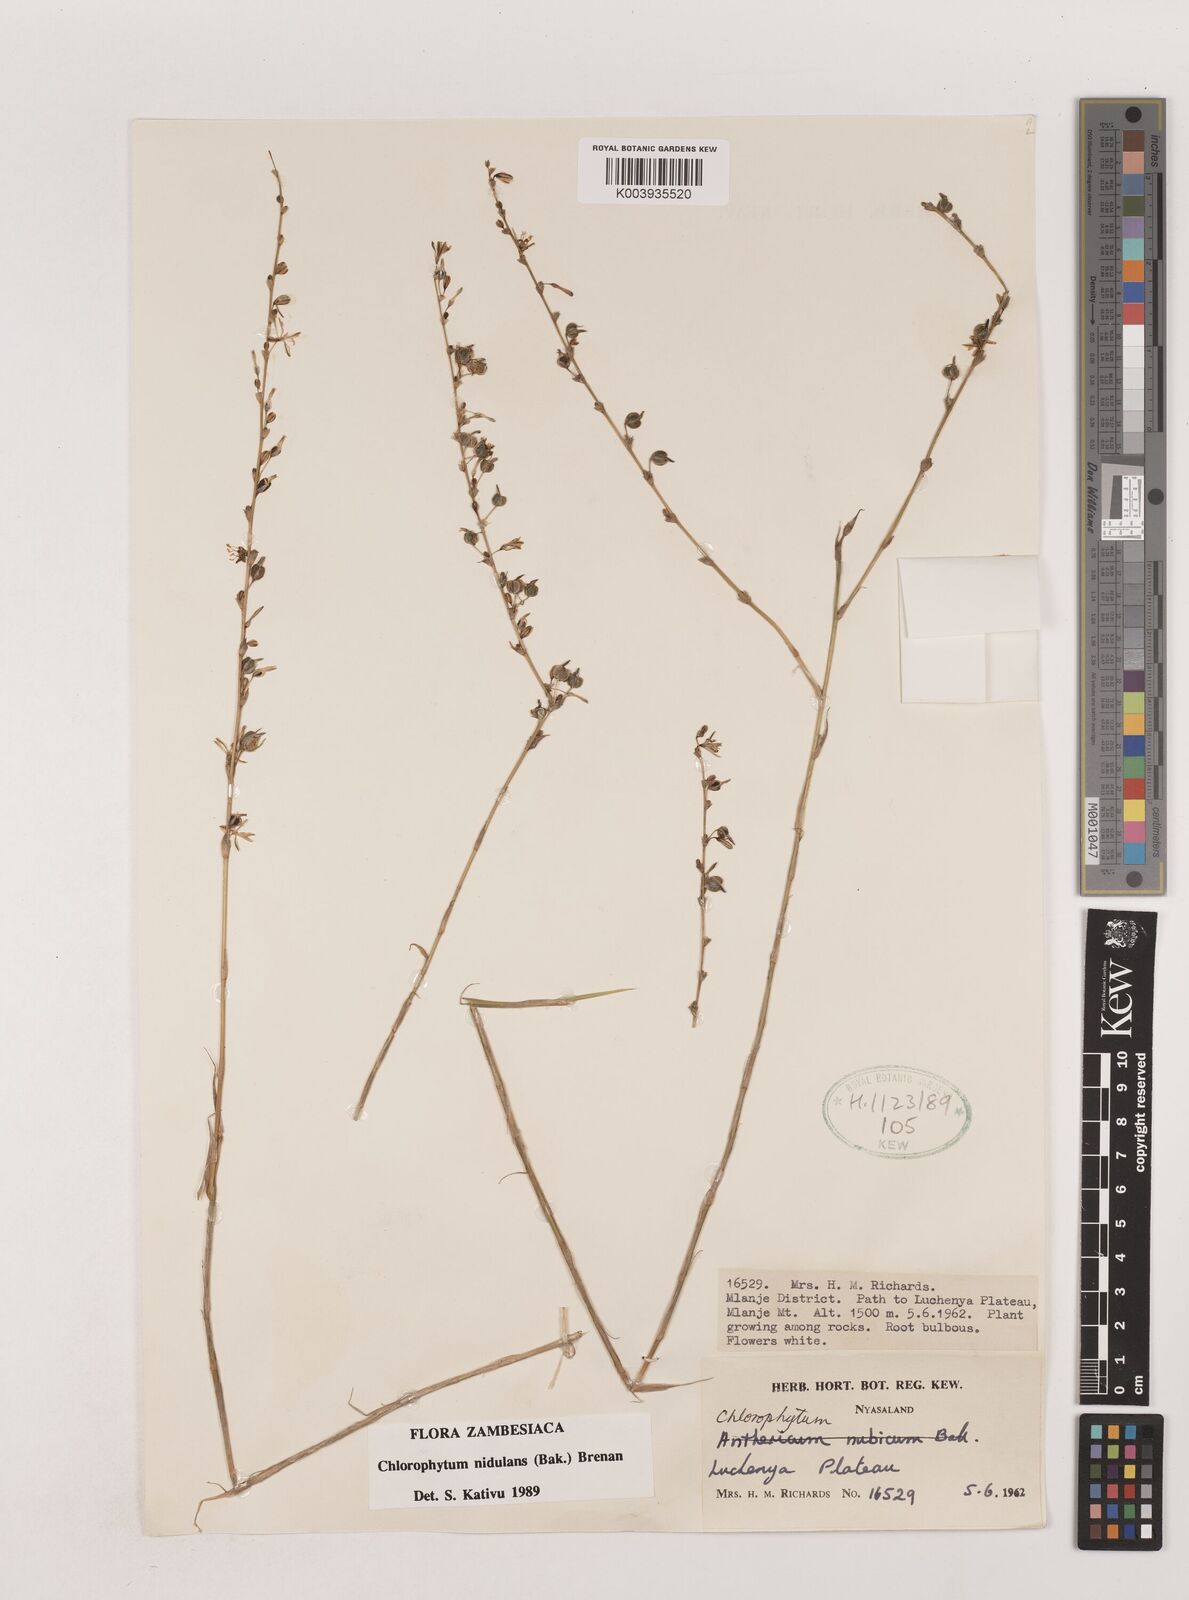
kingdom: Plantae
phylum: Tracheophyta
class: Liliopsida
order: Asparagales
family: Asparagaceae
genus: Chlorophytum
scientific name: Chlorophytum nidulans
